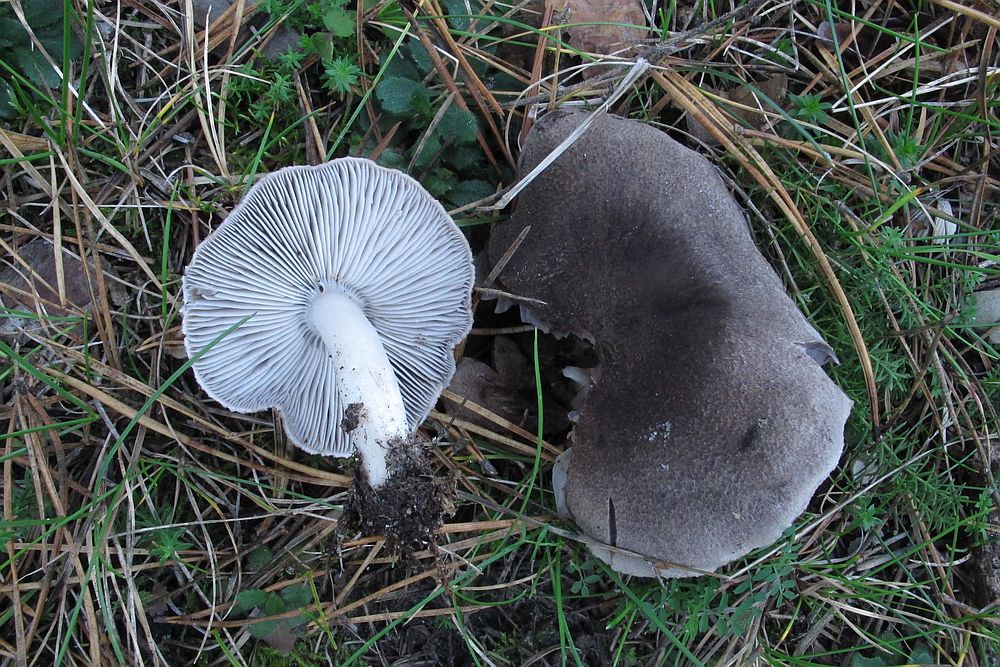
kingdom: Fungi
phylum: Basidiomycota
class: Agaricomycetes
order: Agaricales
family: Tricholomataceae
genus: Tricholoma
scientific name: Tricholoma terreum
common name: jordfarvet ridderhat
